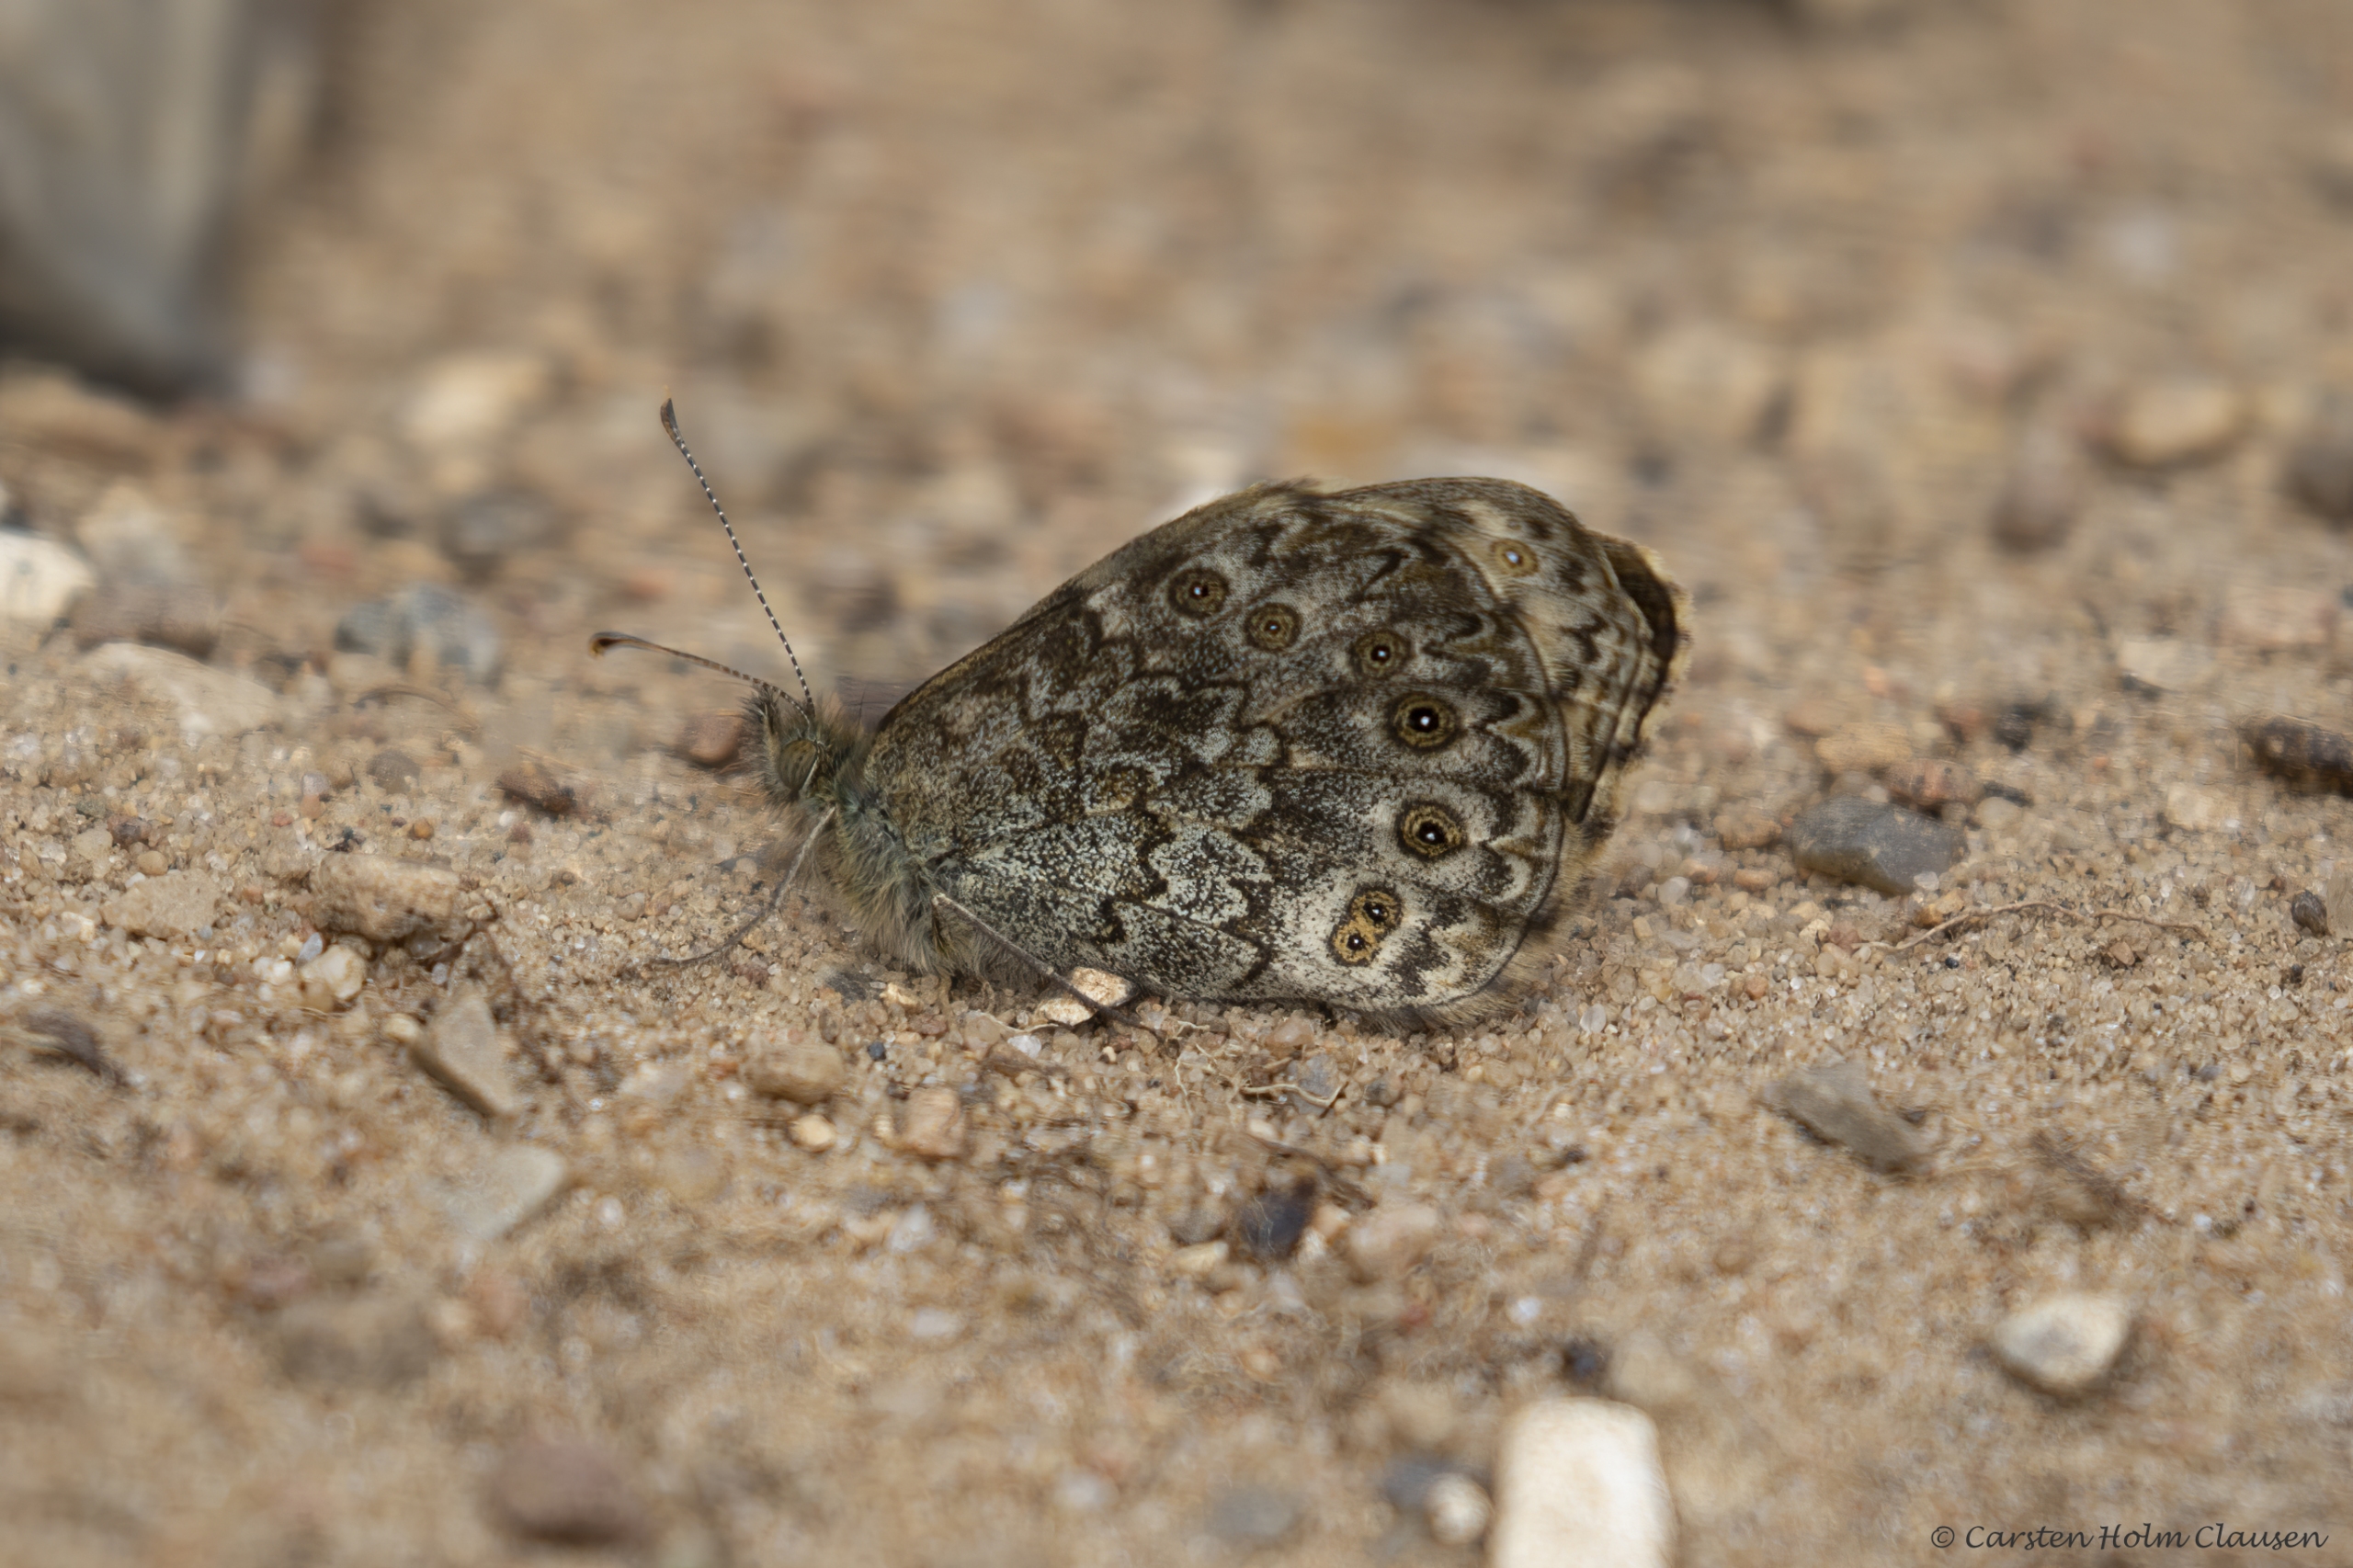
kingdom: Animalia
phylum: Arthropoda
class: Insecta
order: Lepidoptera
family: Nymphalidae
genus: Pararge
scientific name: Pararge Lasiommata megera
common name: Vejrandøje
